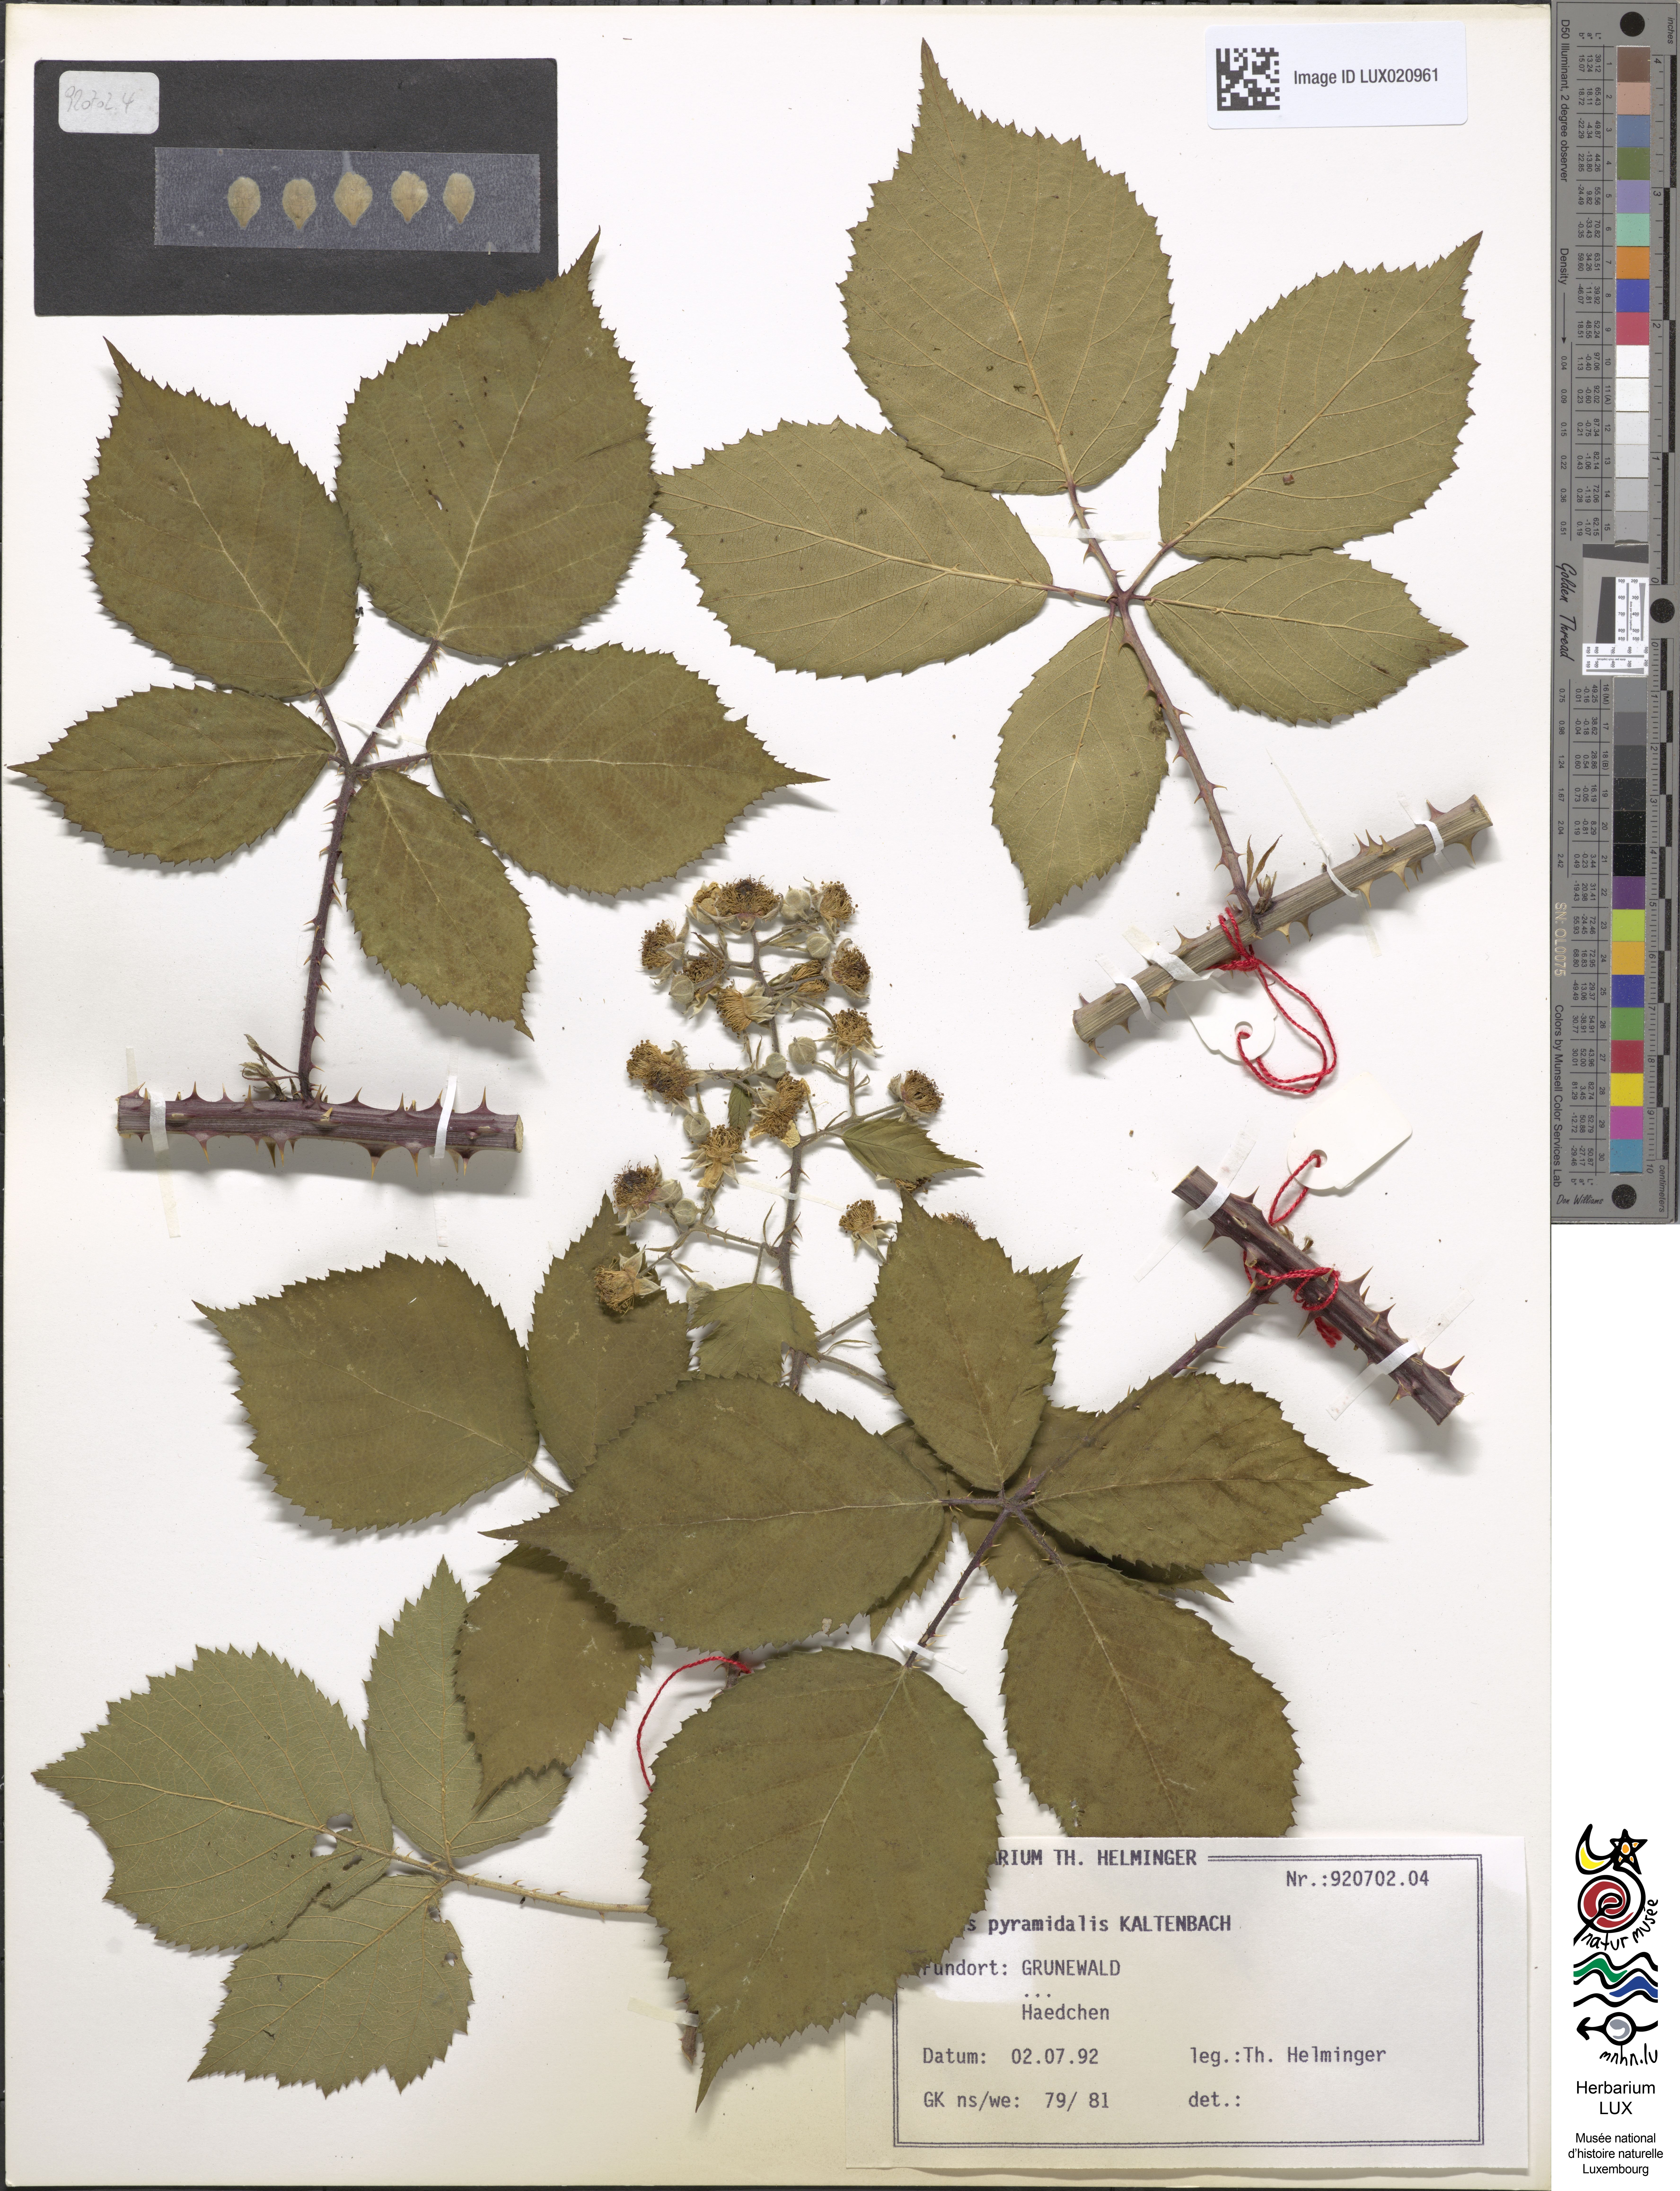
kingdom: Plantae
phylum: Tracheophyta
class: Magnoliopsida
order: Rosales
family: Rosaceae
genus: Rubus
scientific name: Rubus umbrosus
